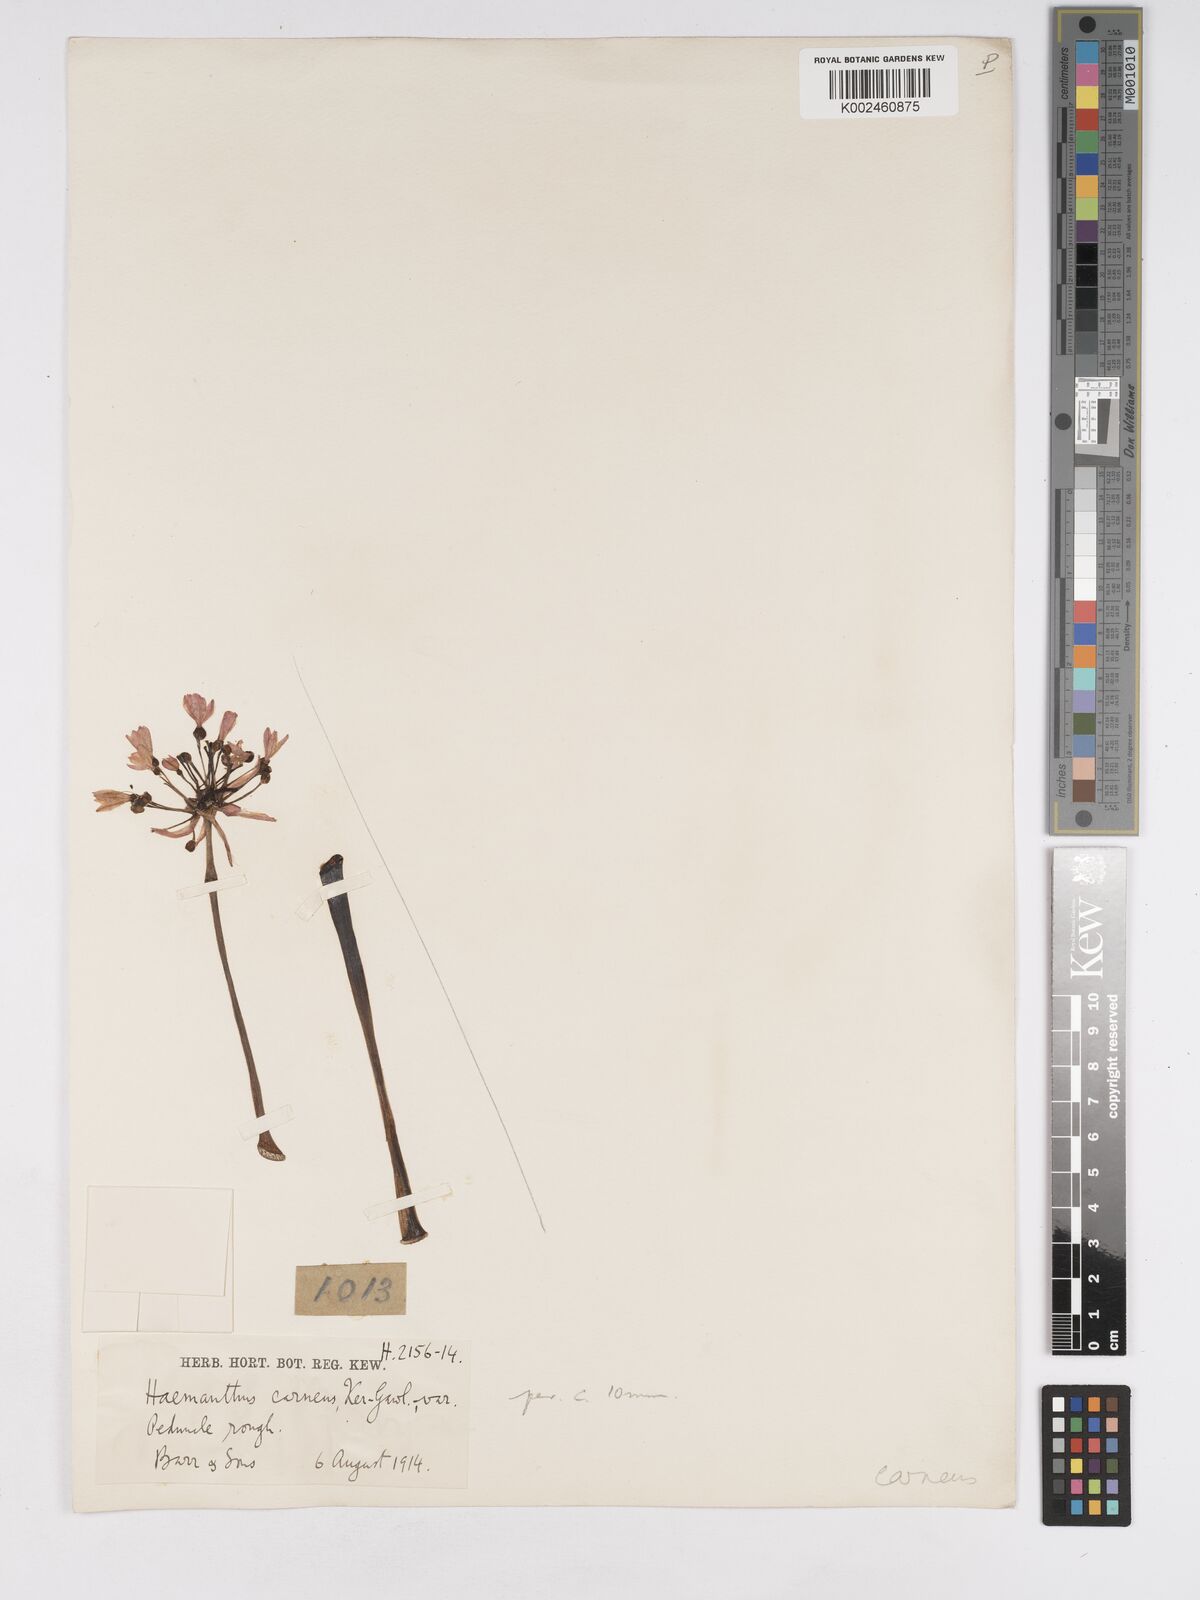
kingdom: Plantae
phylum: Tracheophyta
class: Liliopsida
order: Asparagales
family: Amaryllidaceae
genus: Haemanthus
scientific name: Haemanthus carneus
